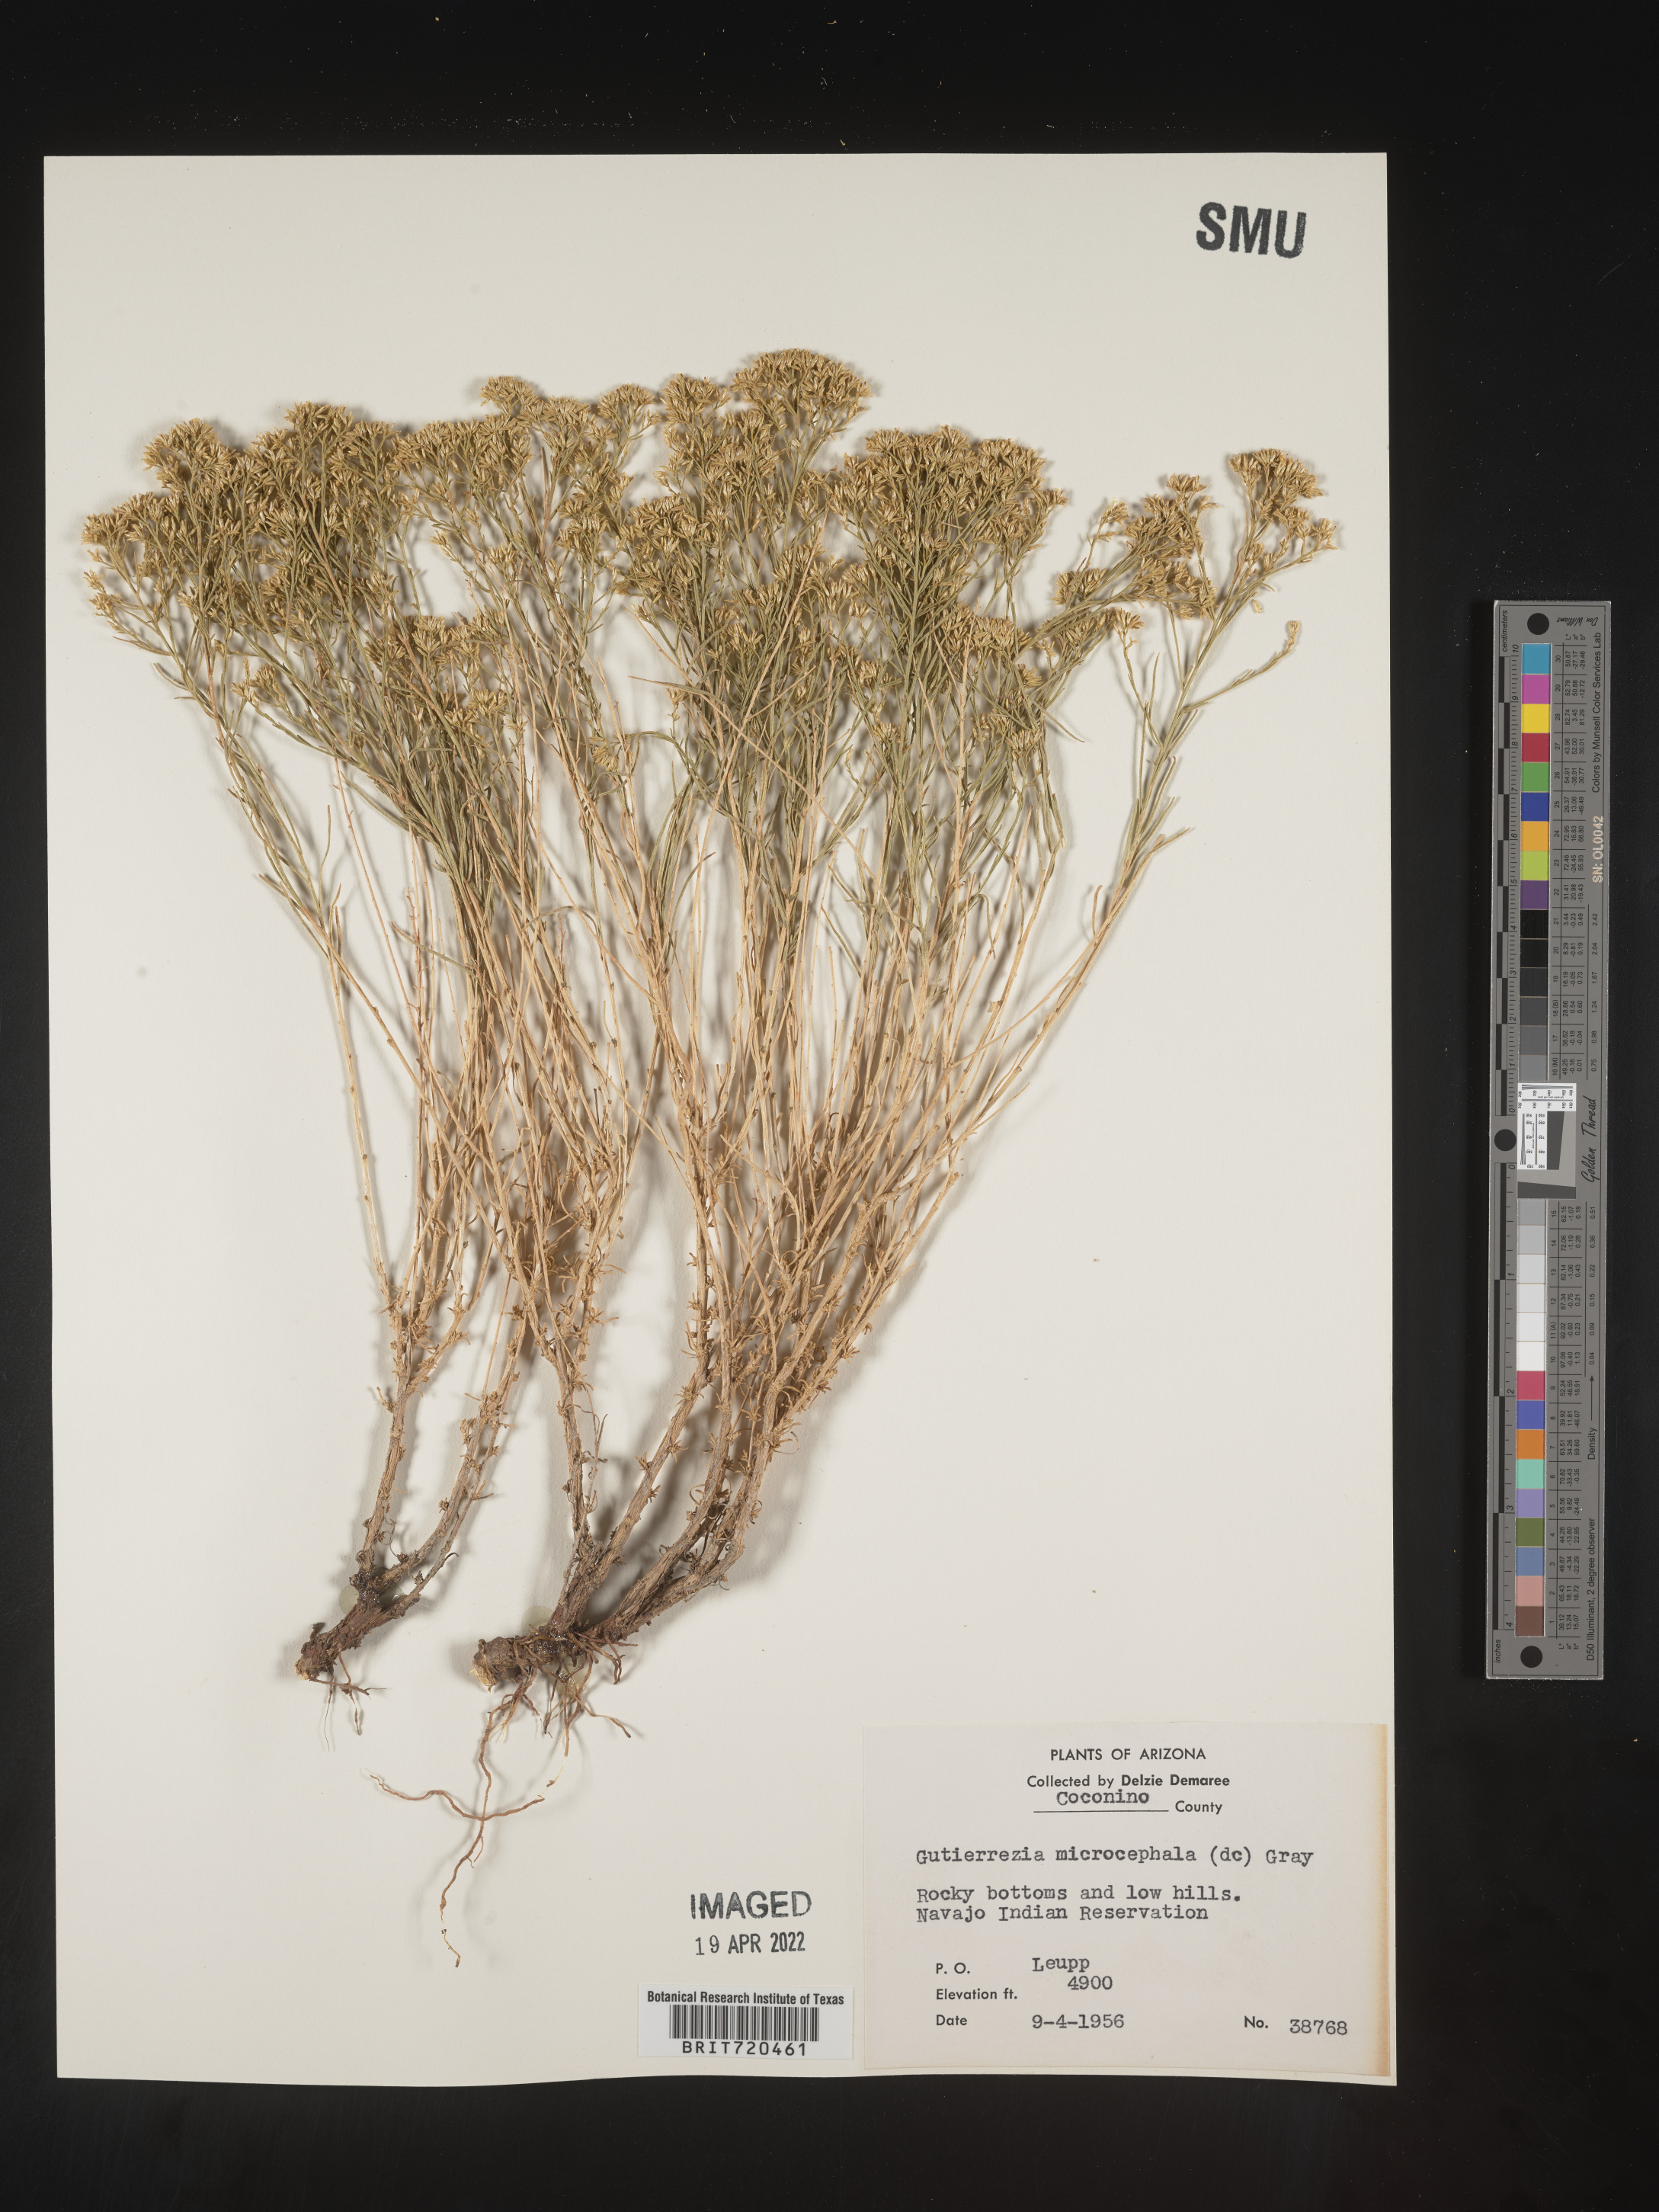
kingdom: Plantae
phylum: Tracheophyta
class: Magnoliopsida
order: Asterales
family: Asteraceae
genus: Gutierrezia
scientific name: Gutierrezia microcephala
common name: Thread snakeweed
